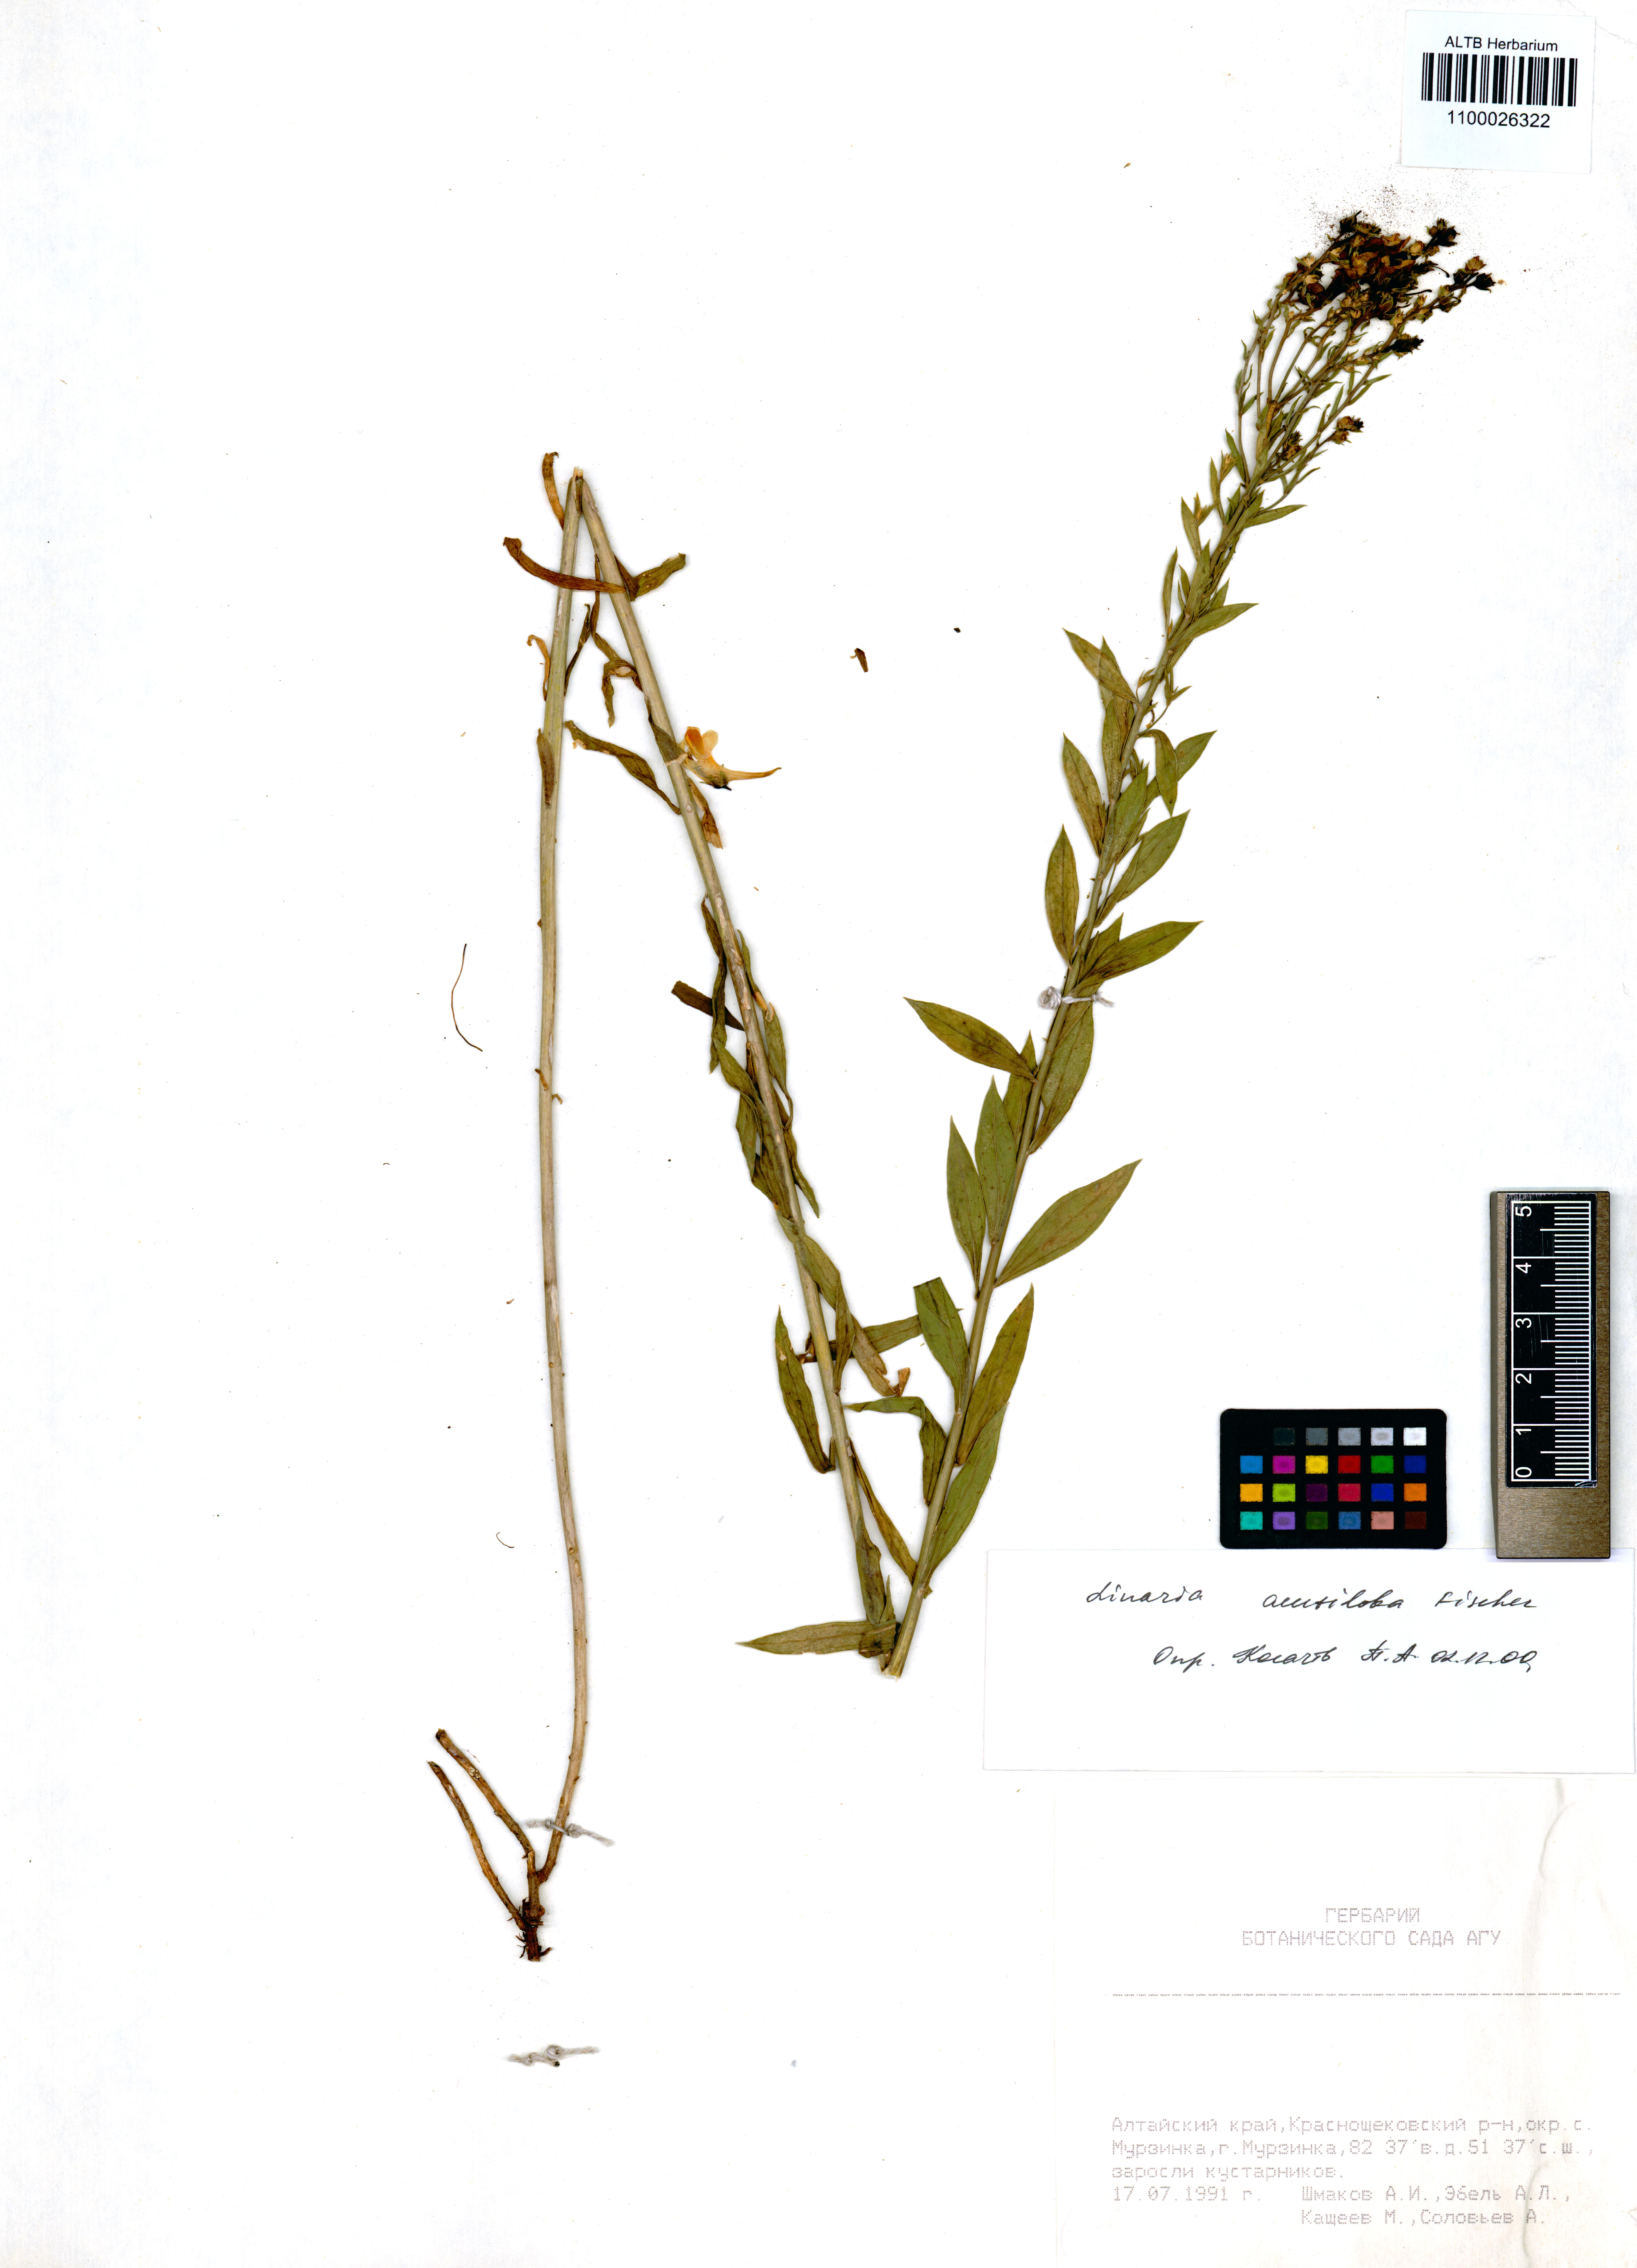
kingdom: Plantae
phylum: Tracheophyta
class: Magnoliopsida
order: Lamiales
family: Plantaginaceae
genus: Linaria
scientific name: Linaria acutiloba
